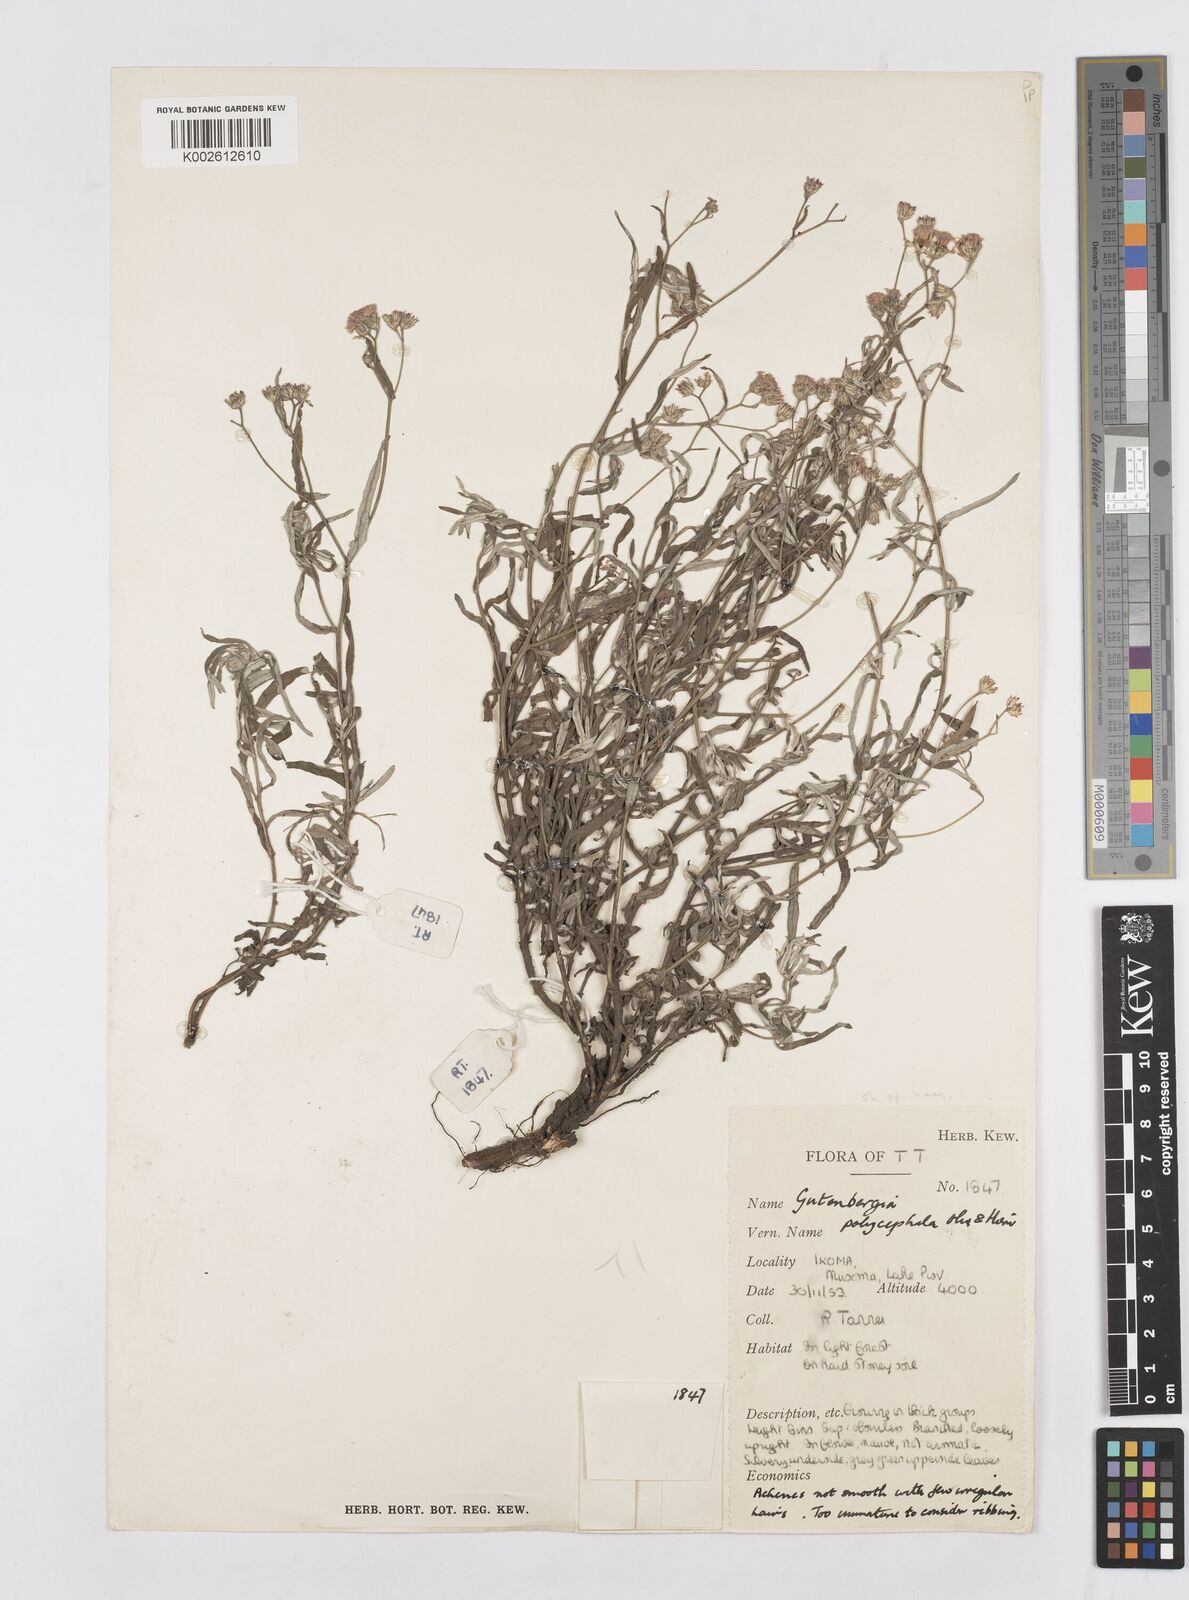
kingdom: Plantae
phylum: Tracheophyta
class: Magnoliopsida
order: Asterales
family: Asteraceae
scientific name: Asteraceae
